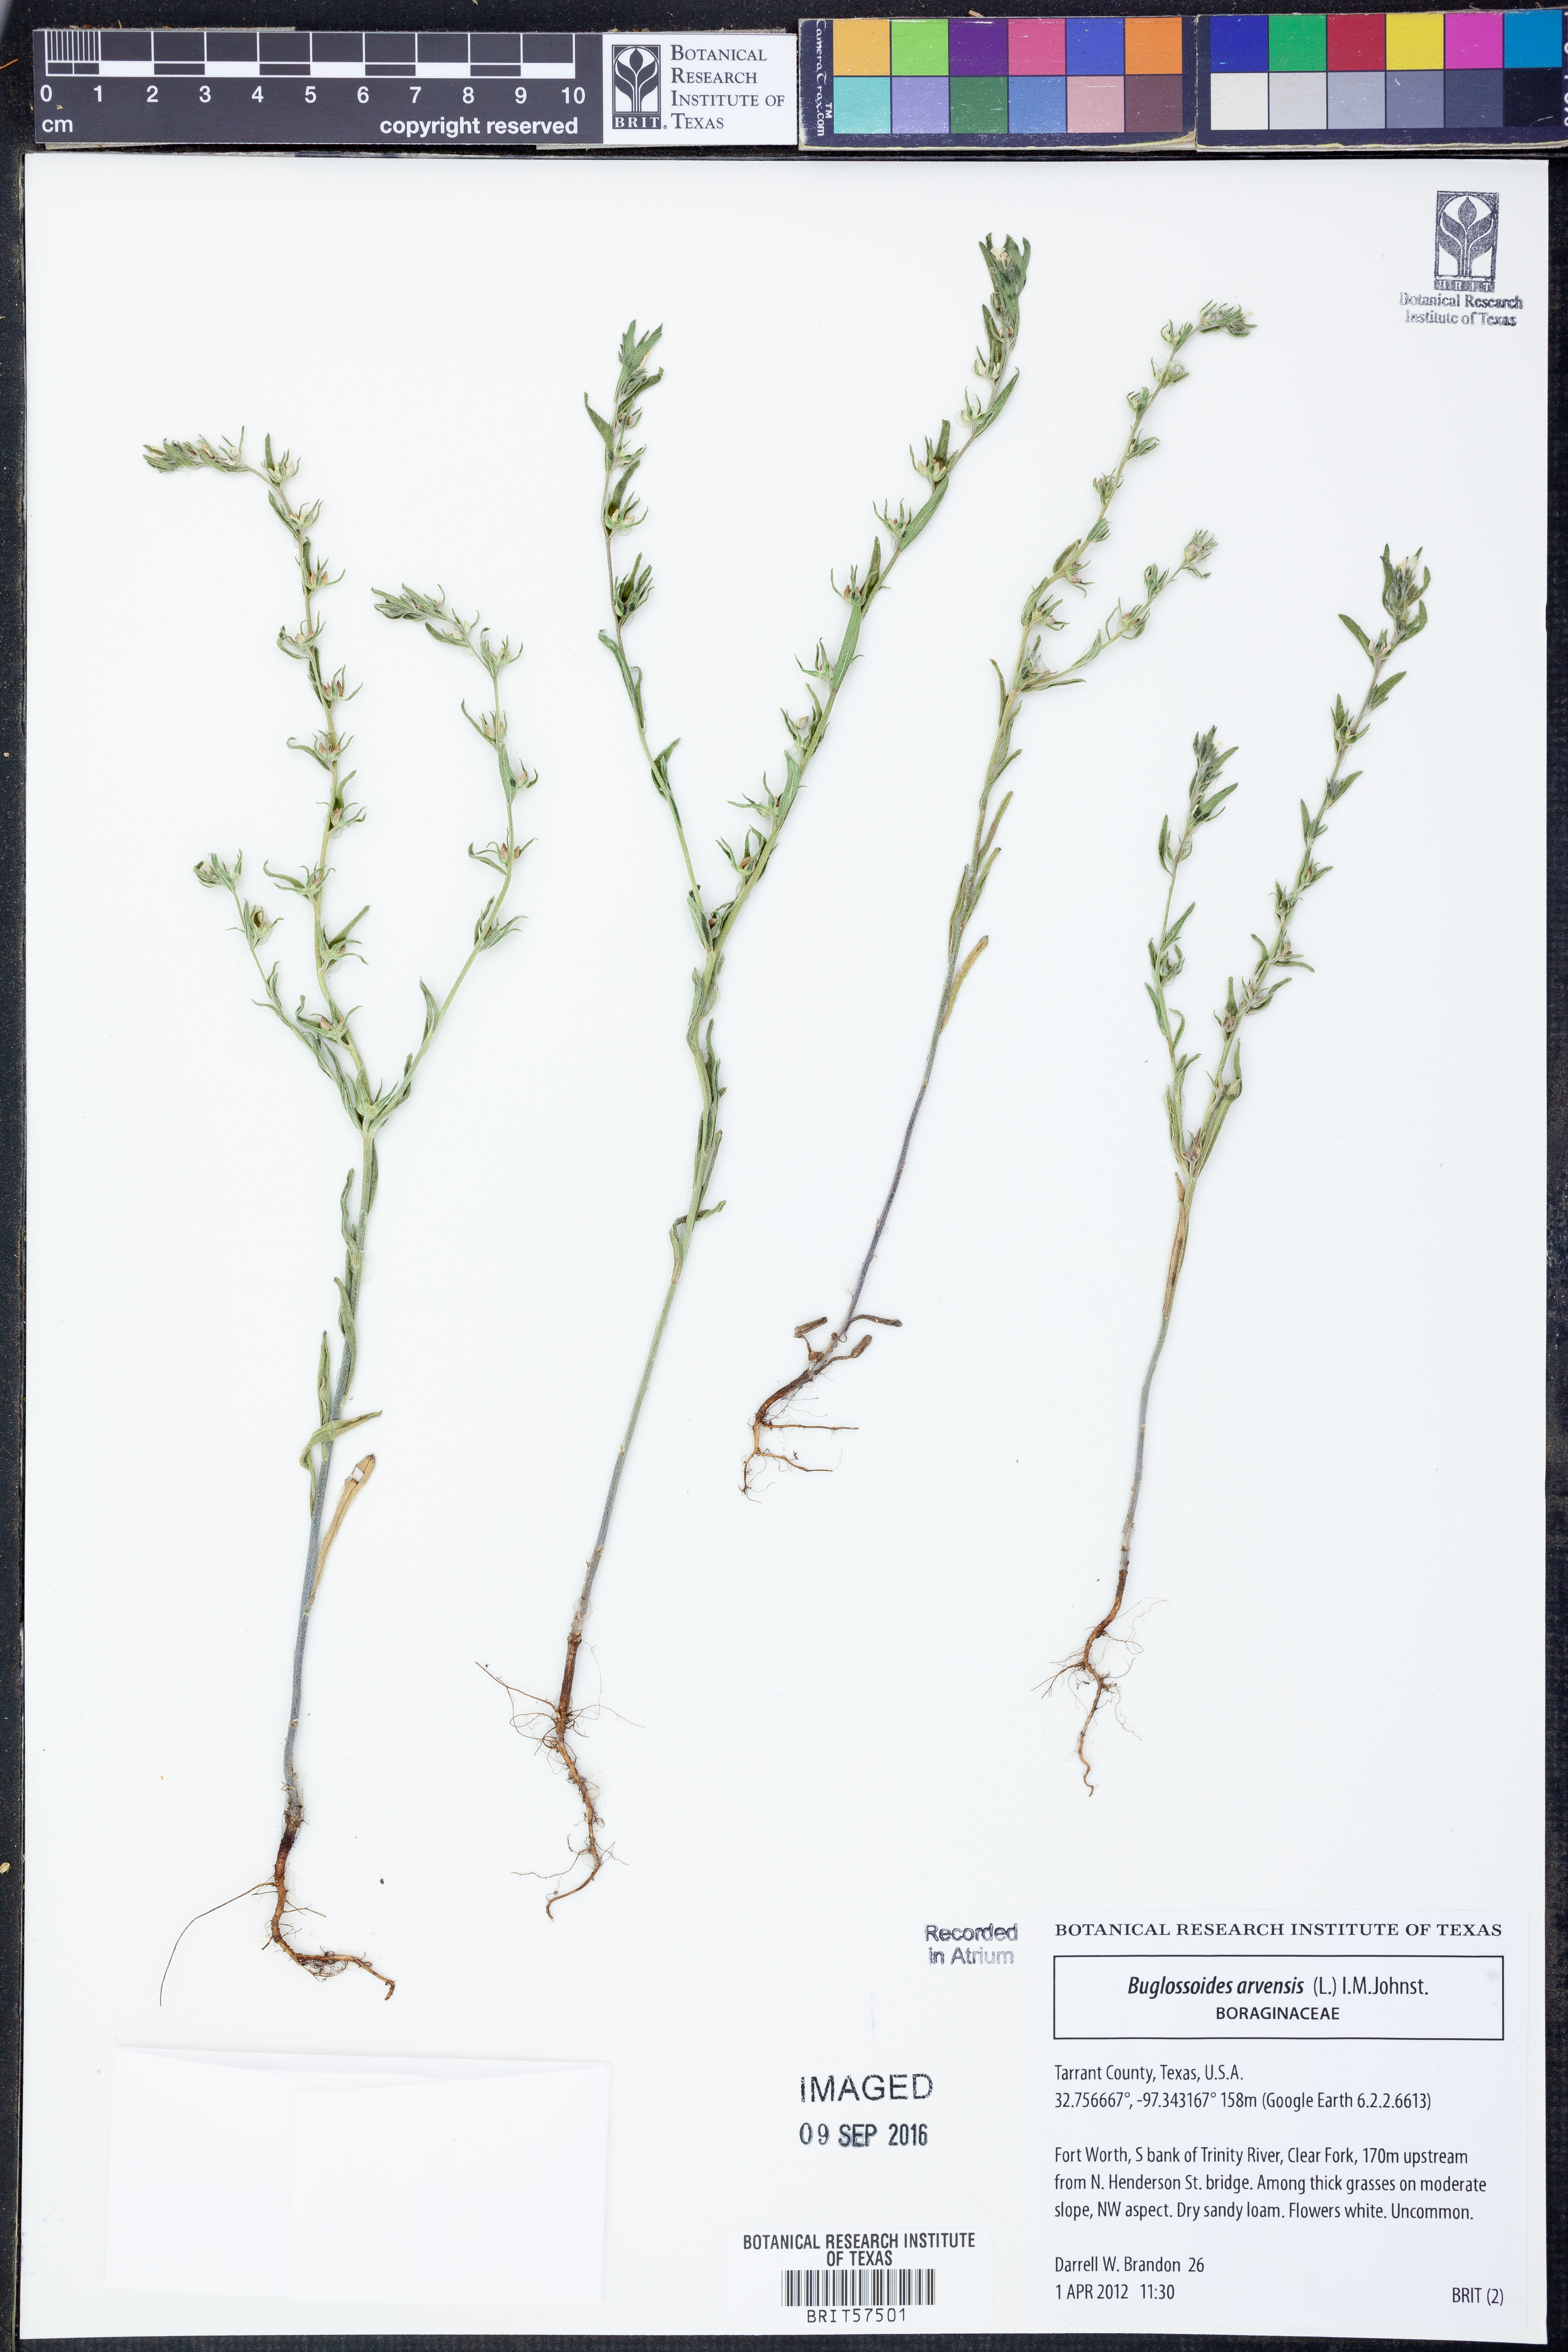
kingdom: Plantae
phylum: Tracheophyta
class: Magnoliopsida
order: Boraginales
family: Boraginaceae
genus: Buglossoides
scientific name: Buglossoides arvensis
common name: Corn gromwell
